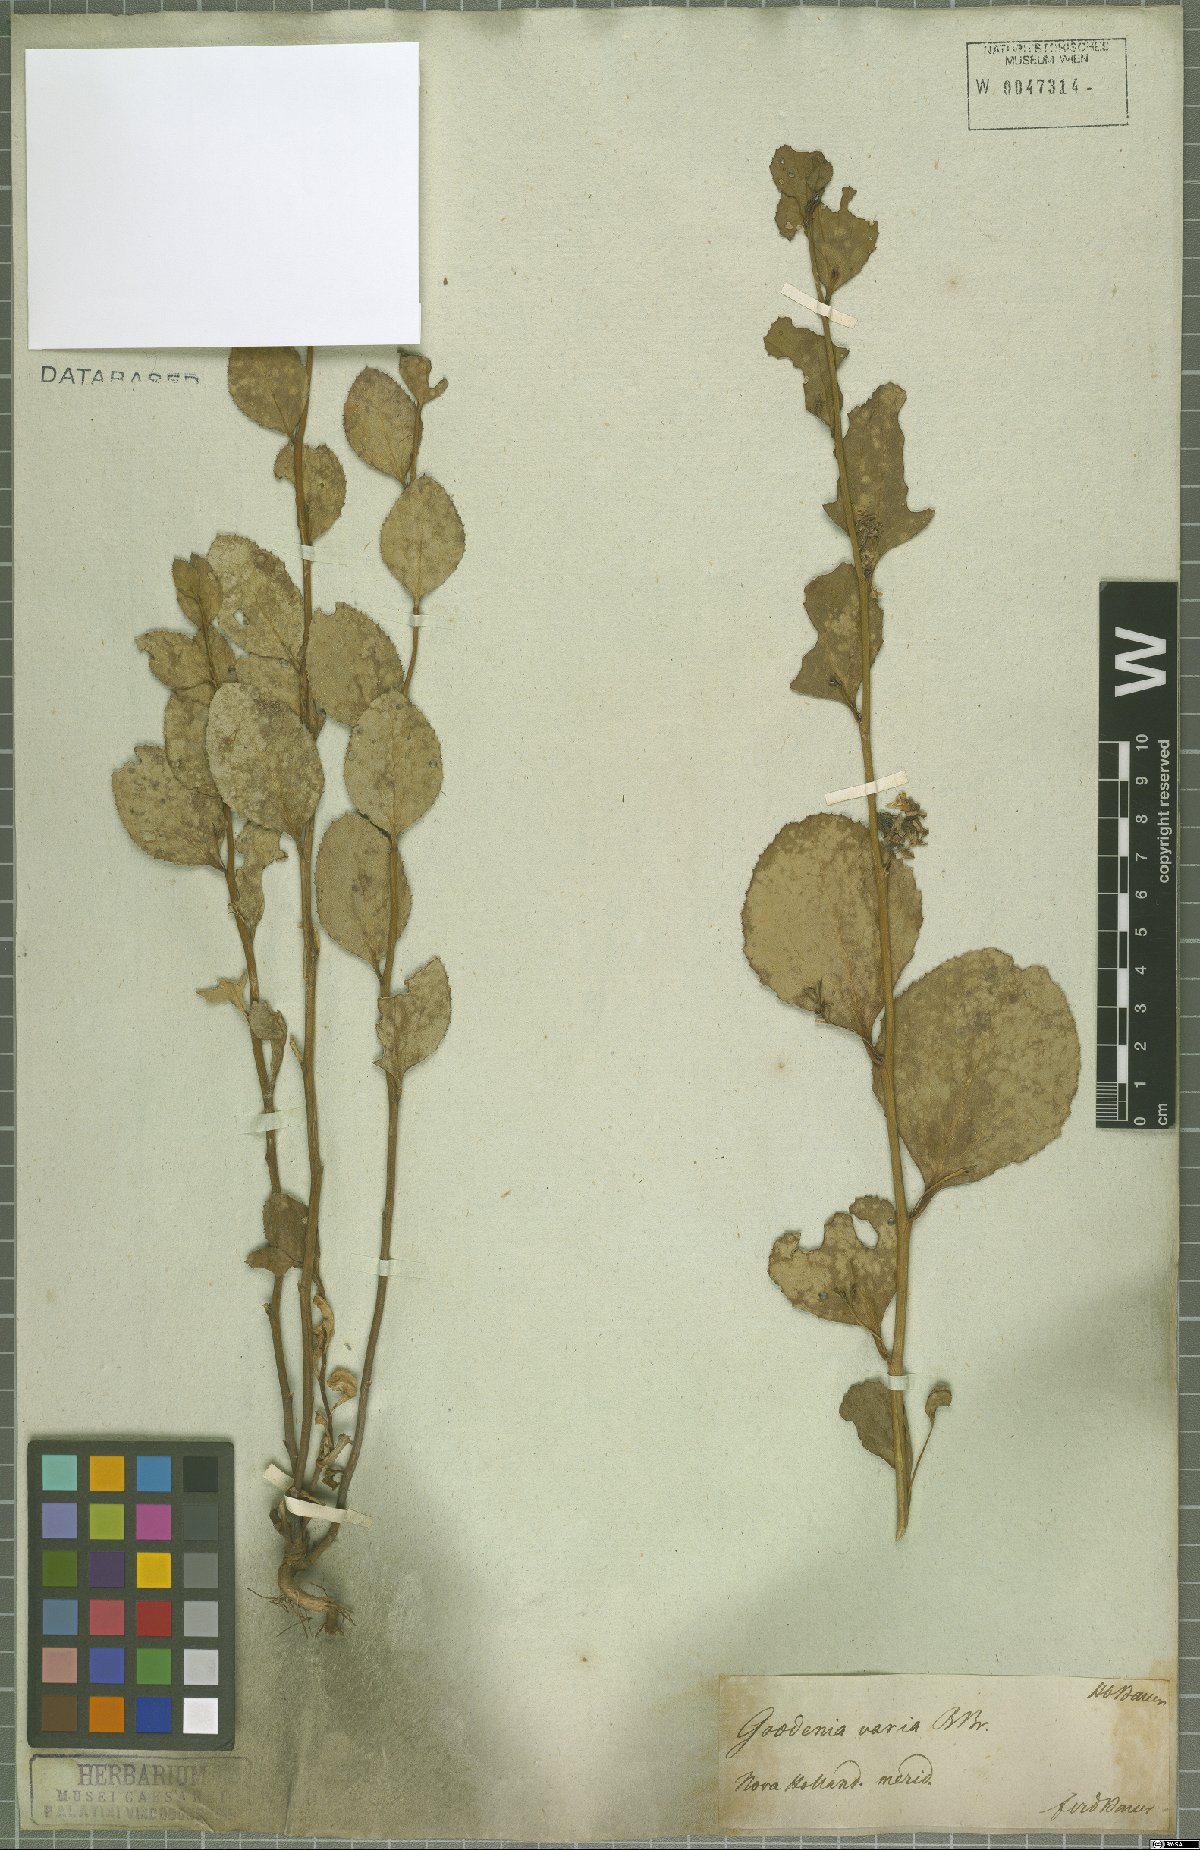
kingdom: Plantae
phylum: Tracheophyta
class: Magnoliopsida
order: Asterales
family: Goodeniaceae
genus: Goodenia
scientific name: Goodenia varia
